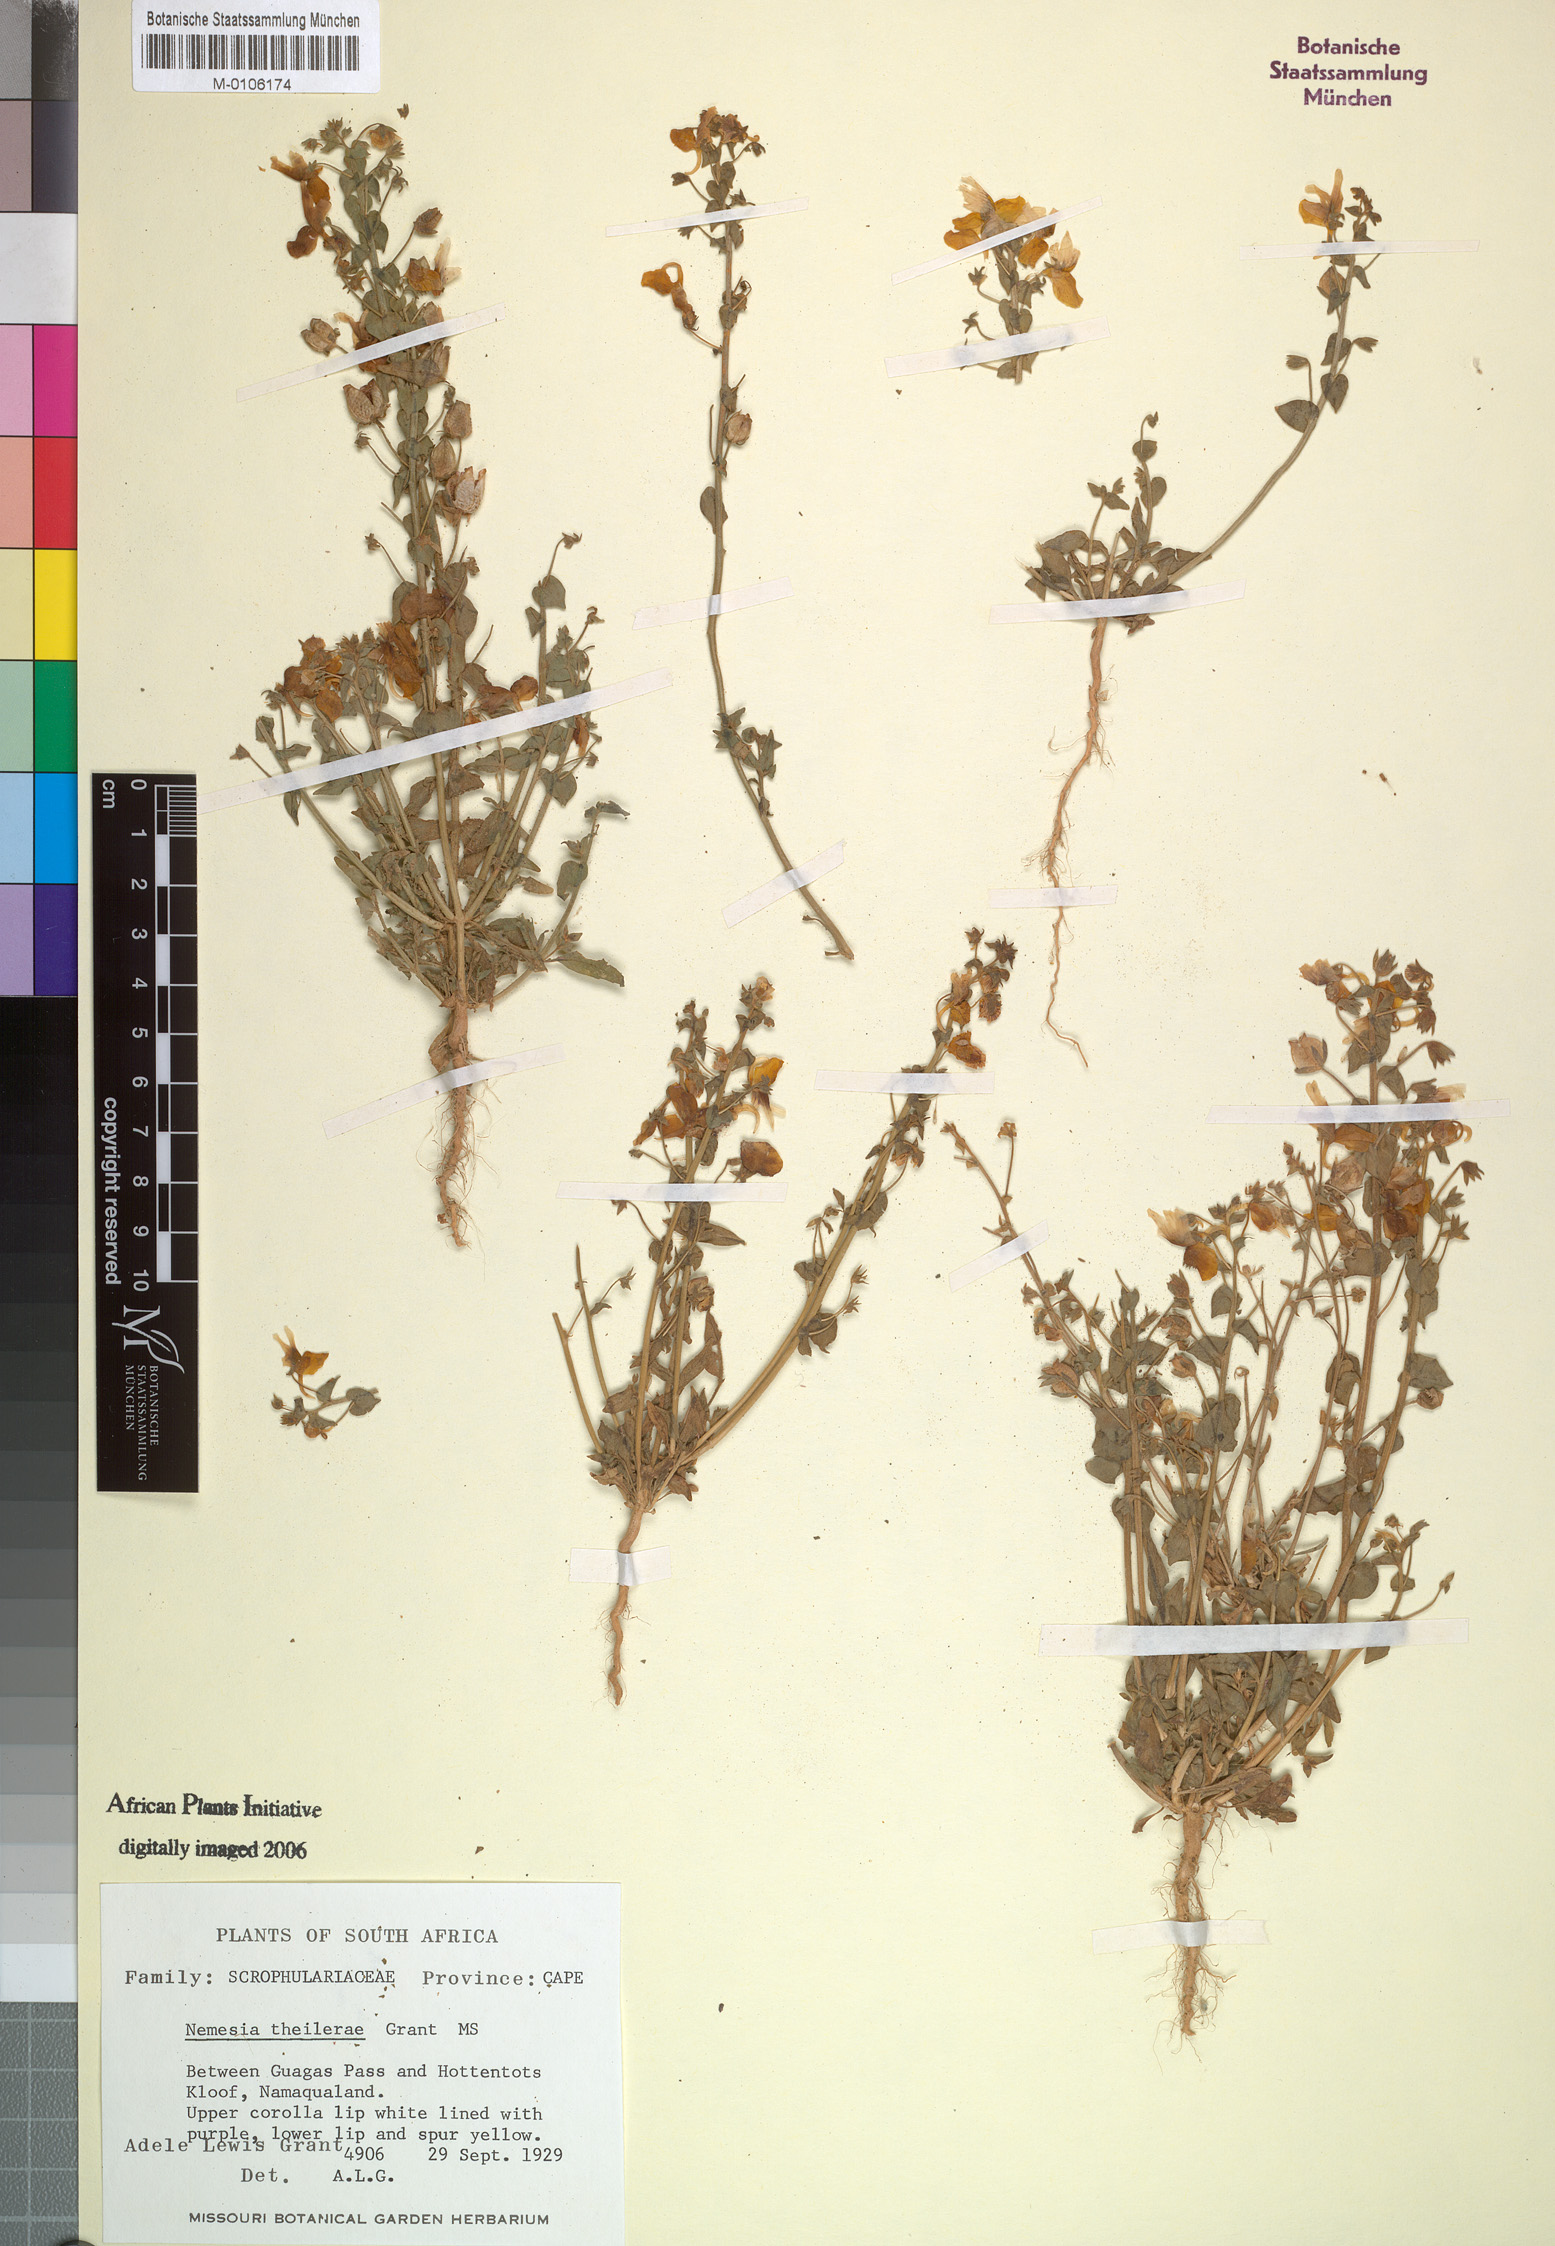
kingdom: Plantae
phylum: Tracheophyta
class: Magnoliopsida
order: Lamiales
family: Scrophulariaceae
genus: Nemesia
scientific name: Nemesia
